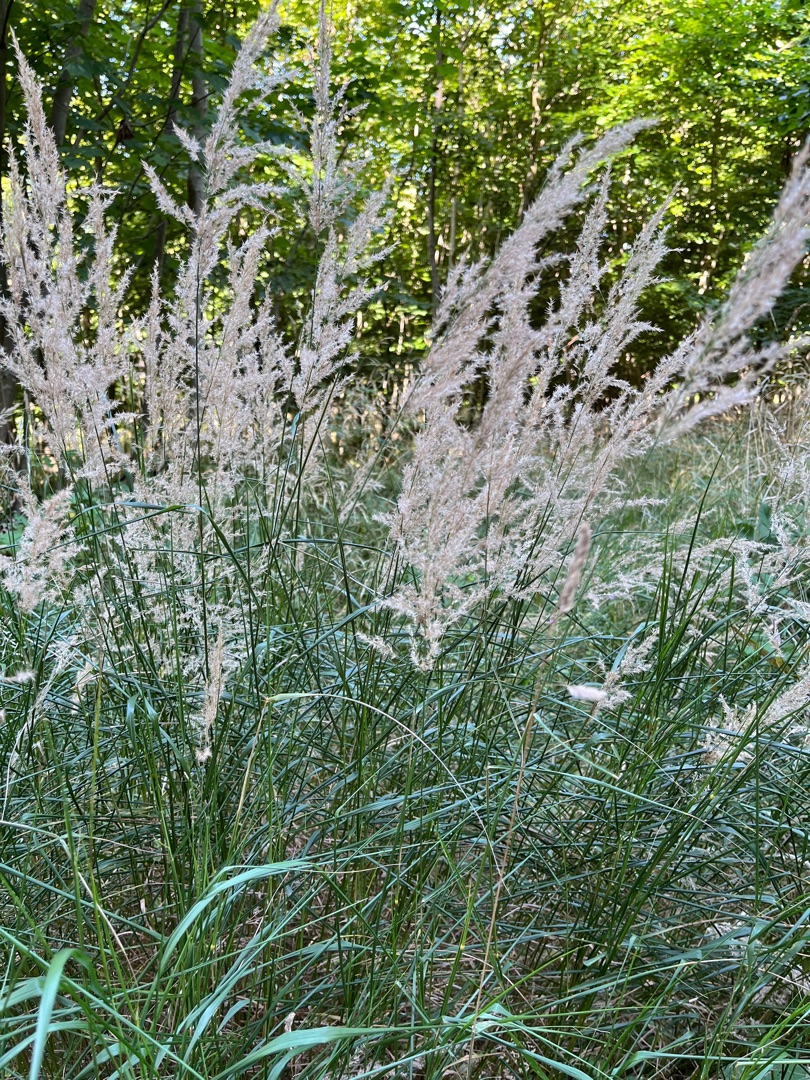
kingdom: Plantae
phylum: Tracheophyta
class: Liliopsida
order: Poales
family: Poaceae
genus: Calamagrostis
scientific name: Calamagrostis canescens
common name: Eng-rørhvene
